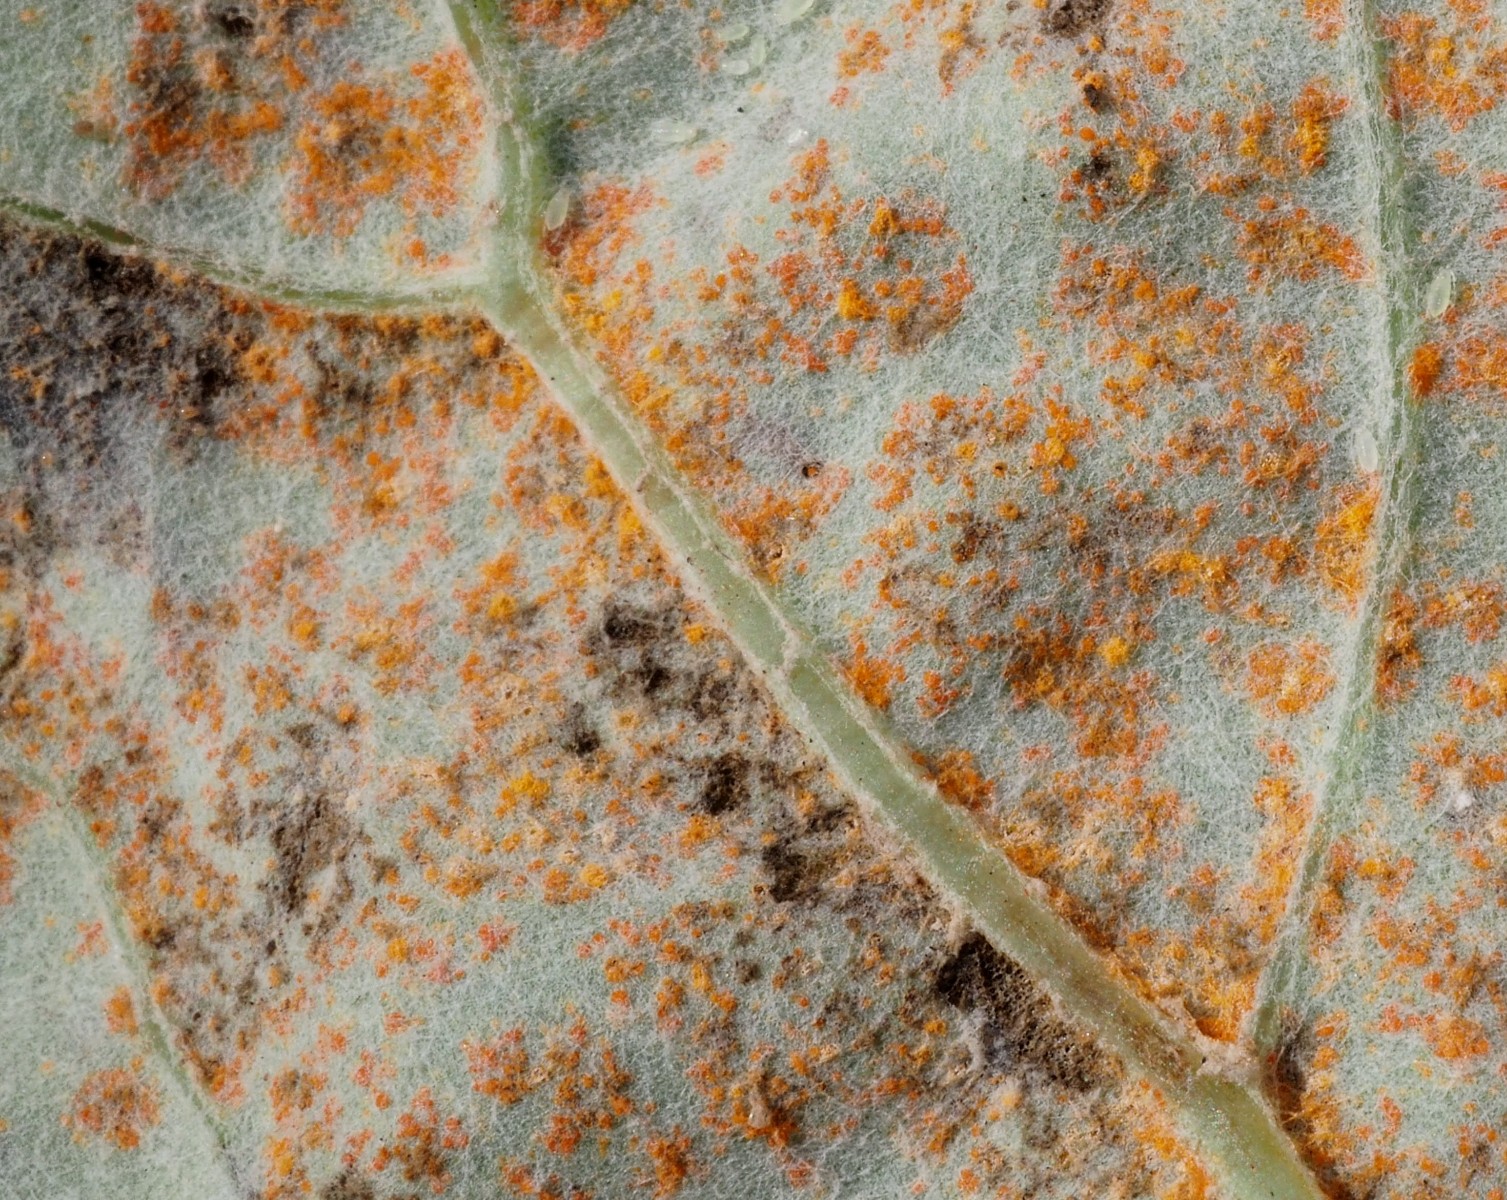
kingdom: Fungi
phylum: Basidiomycota
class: Pucciniomycetes
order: Pucciniales
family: Coleosporiaceae
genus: Coleosporium
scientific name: Coleosporium tussilaginis
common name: almindelig fyrrenålerust
